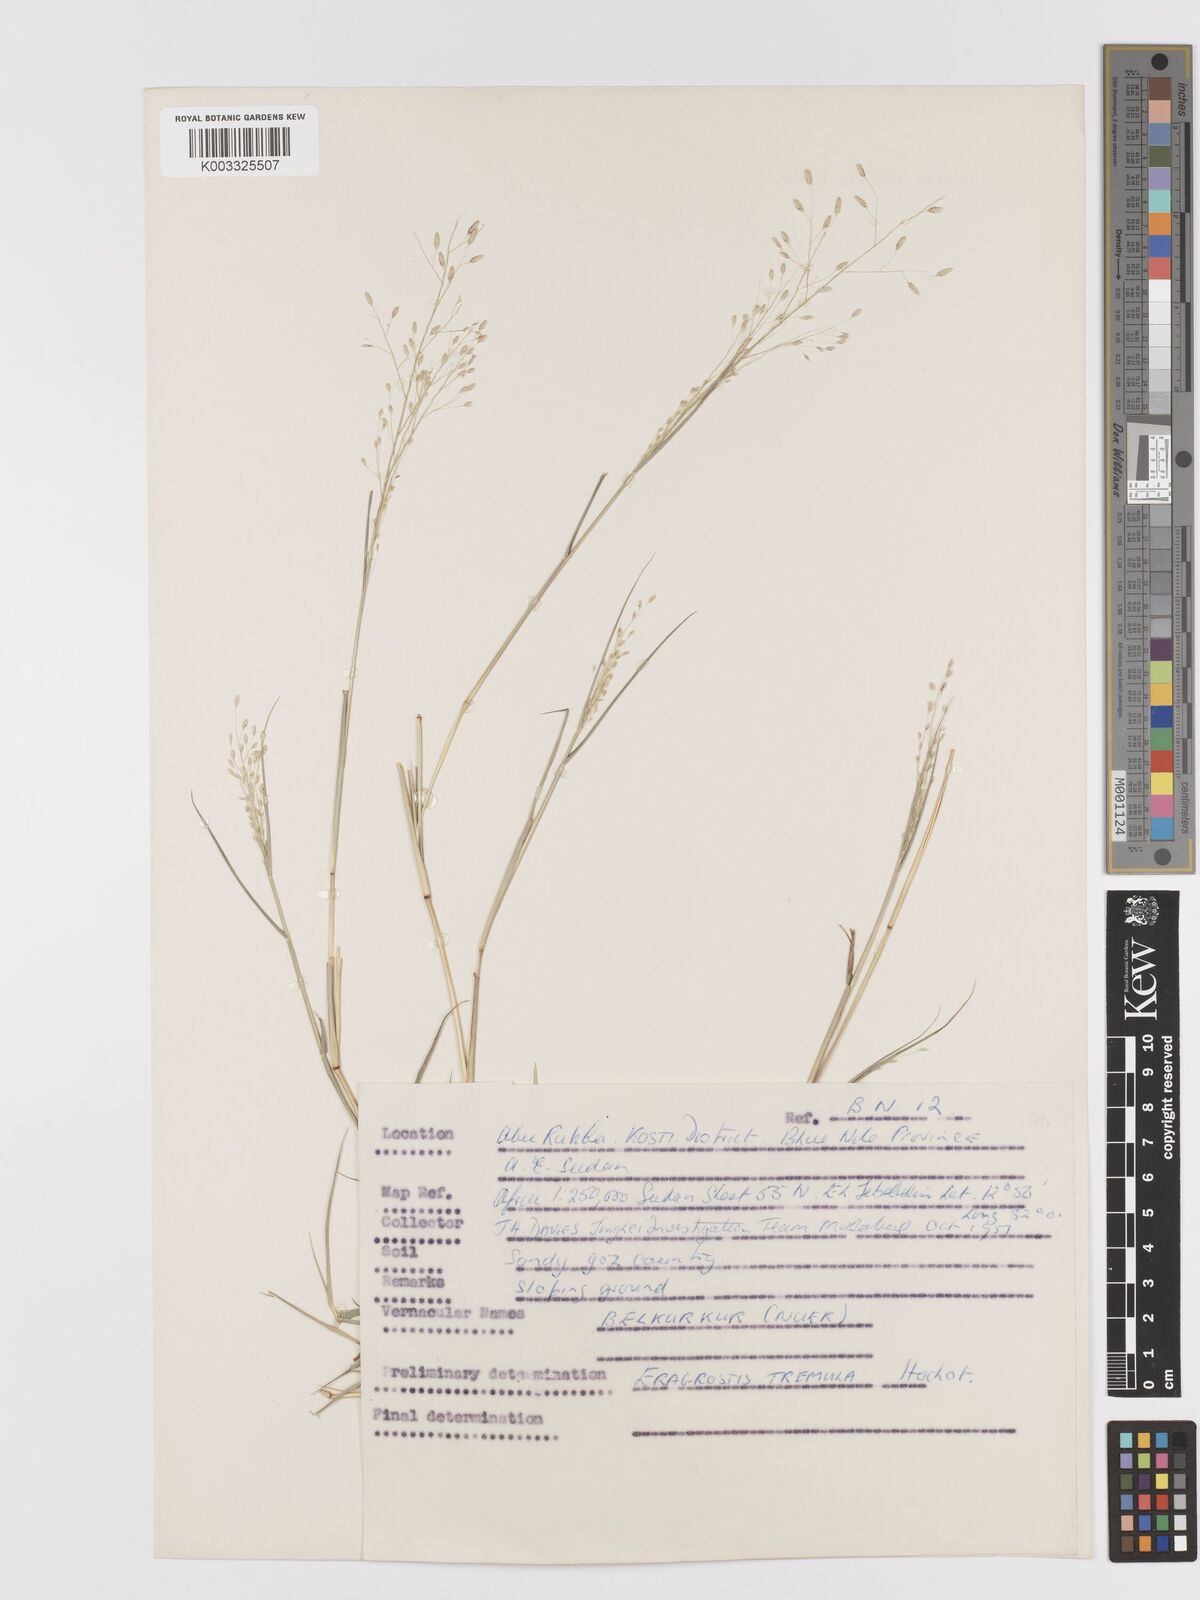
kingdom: Plantae
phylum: Tracheophyta
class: Liliopsida
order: Poales
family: Poaceae
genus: Eragrostis
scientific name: Eragrostis tremula
